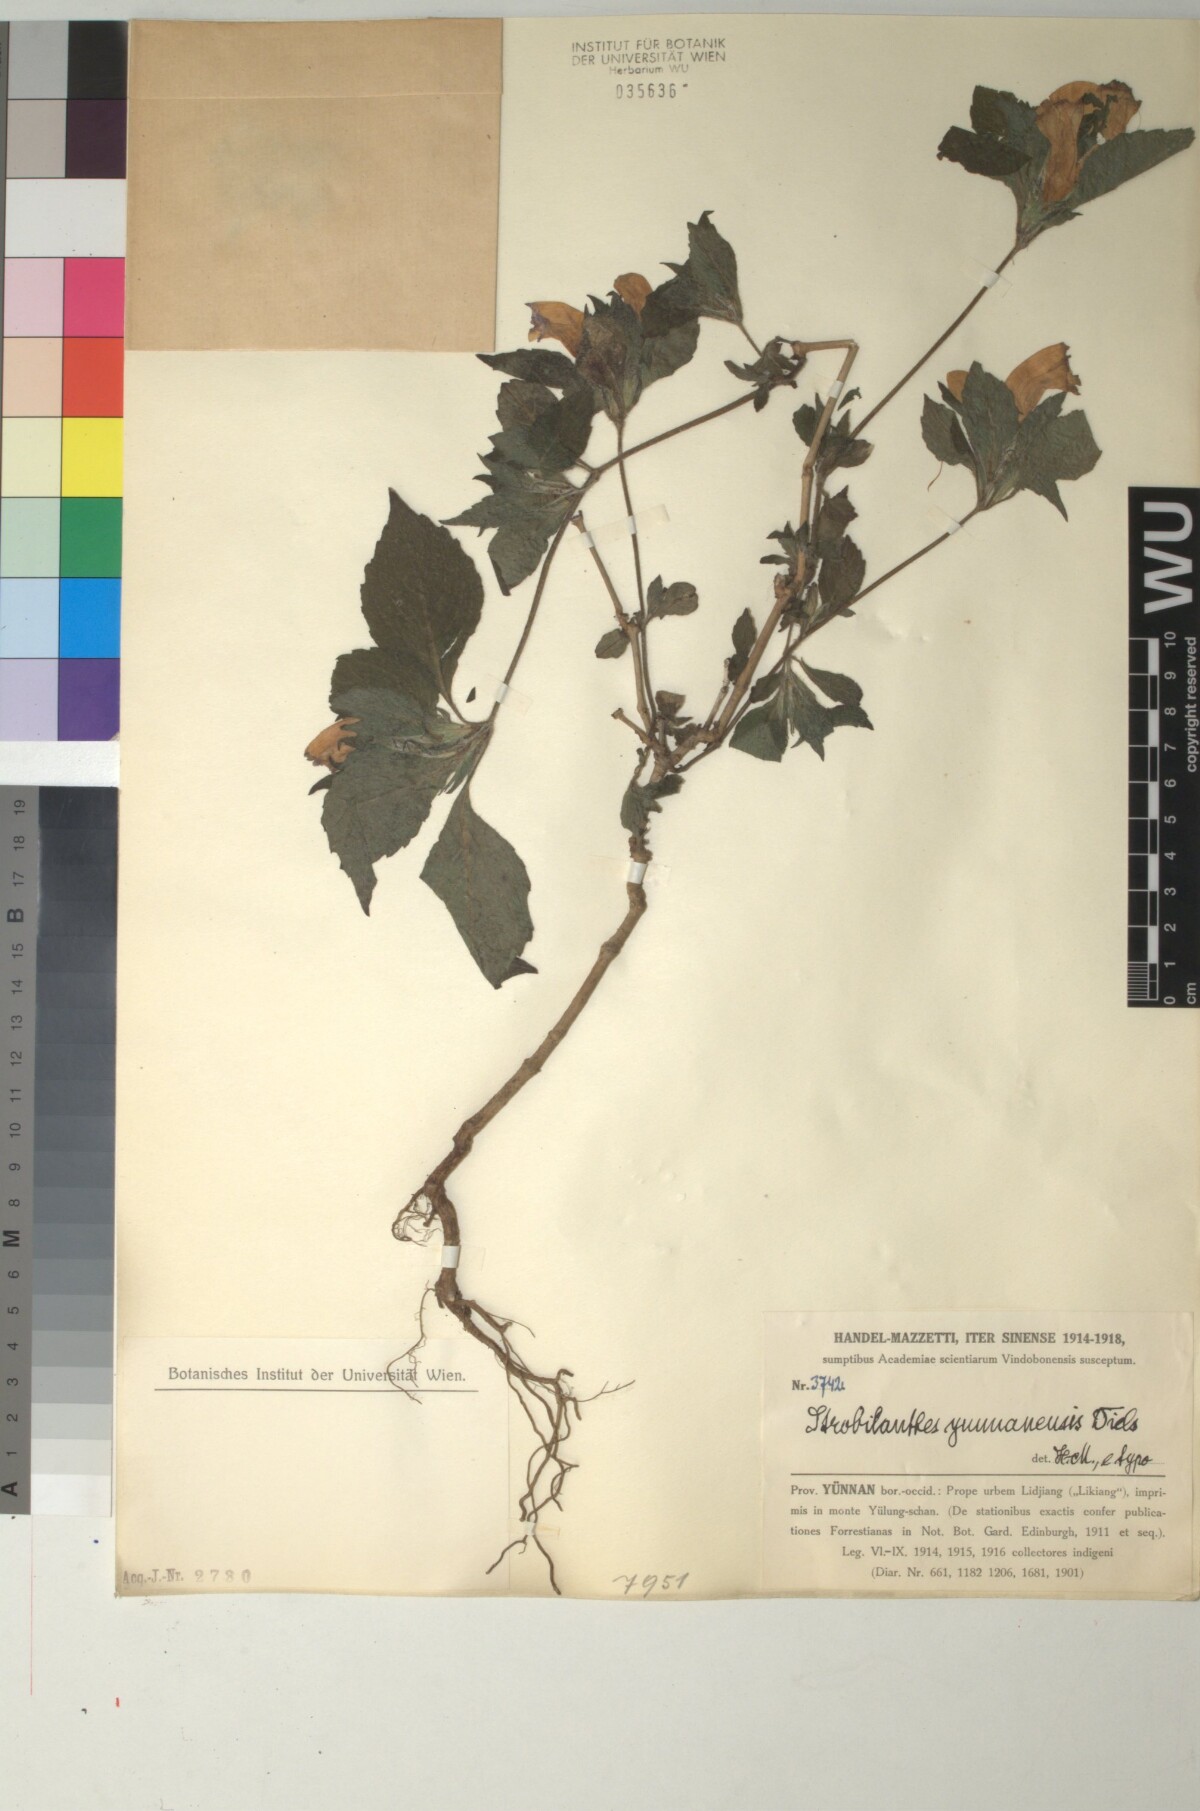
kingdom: Plantae
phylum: Tracheophyta
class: Magnoliopsida
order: Lamiales
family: Acanthaceae
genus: Strobilanthes
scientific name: Strobilanthes yunnanensis
